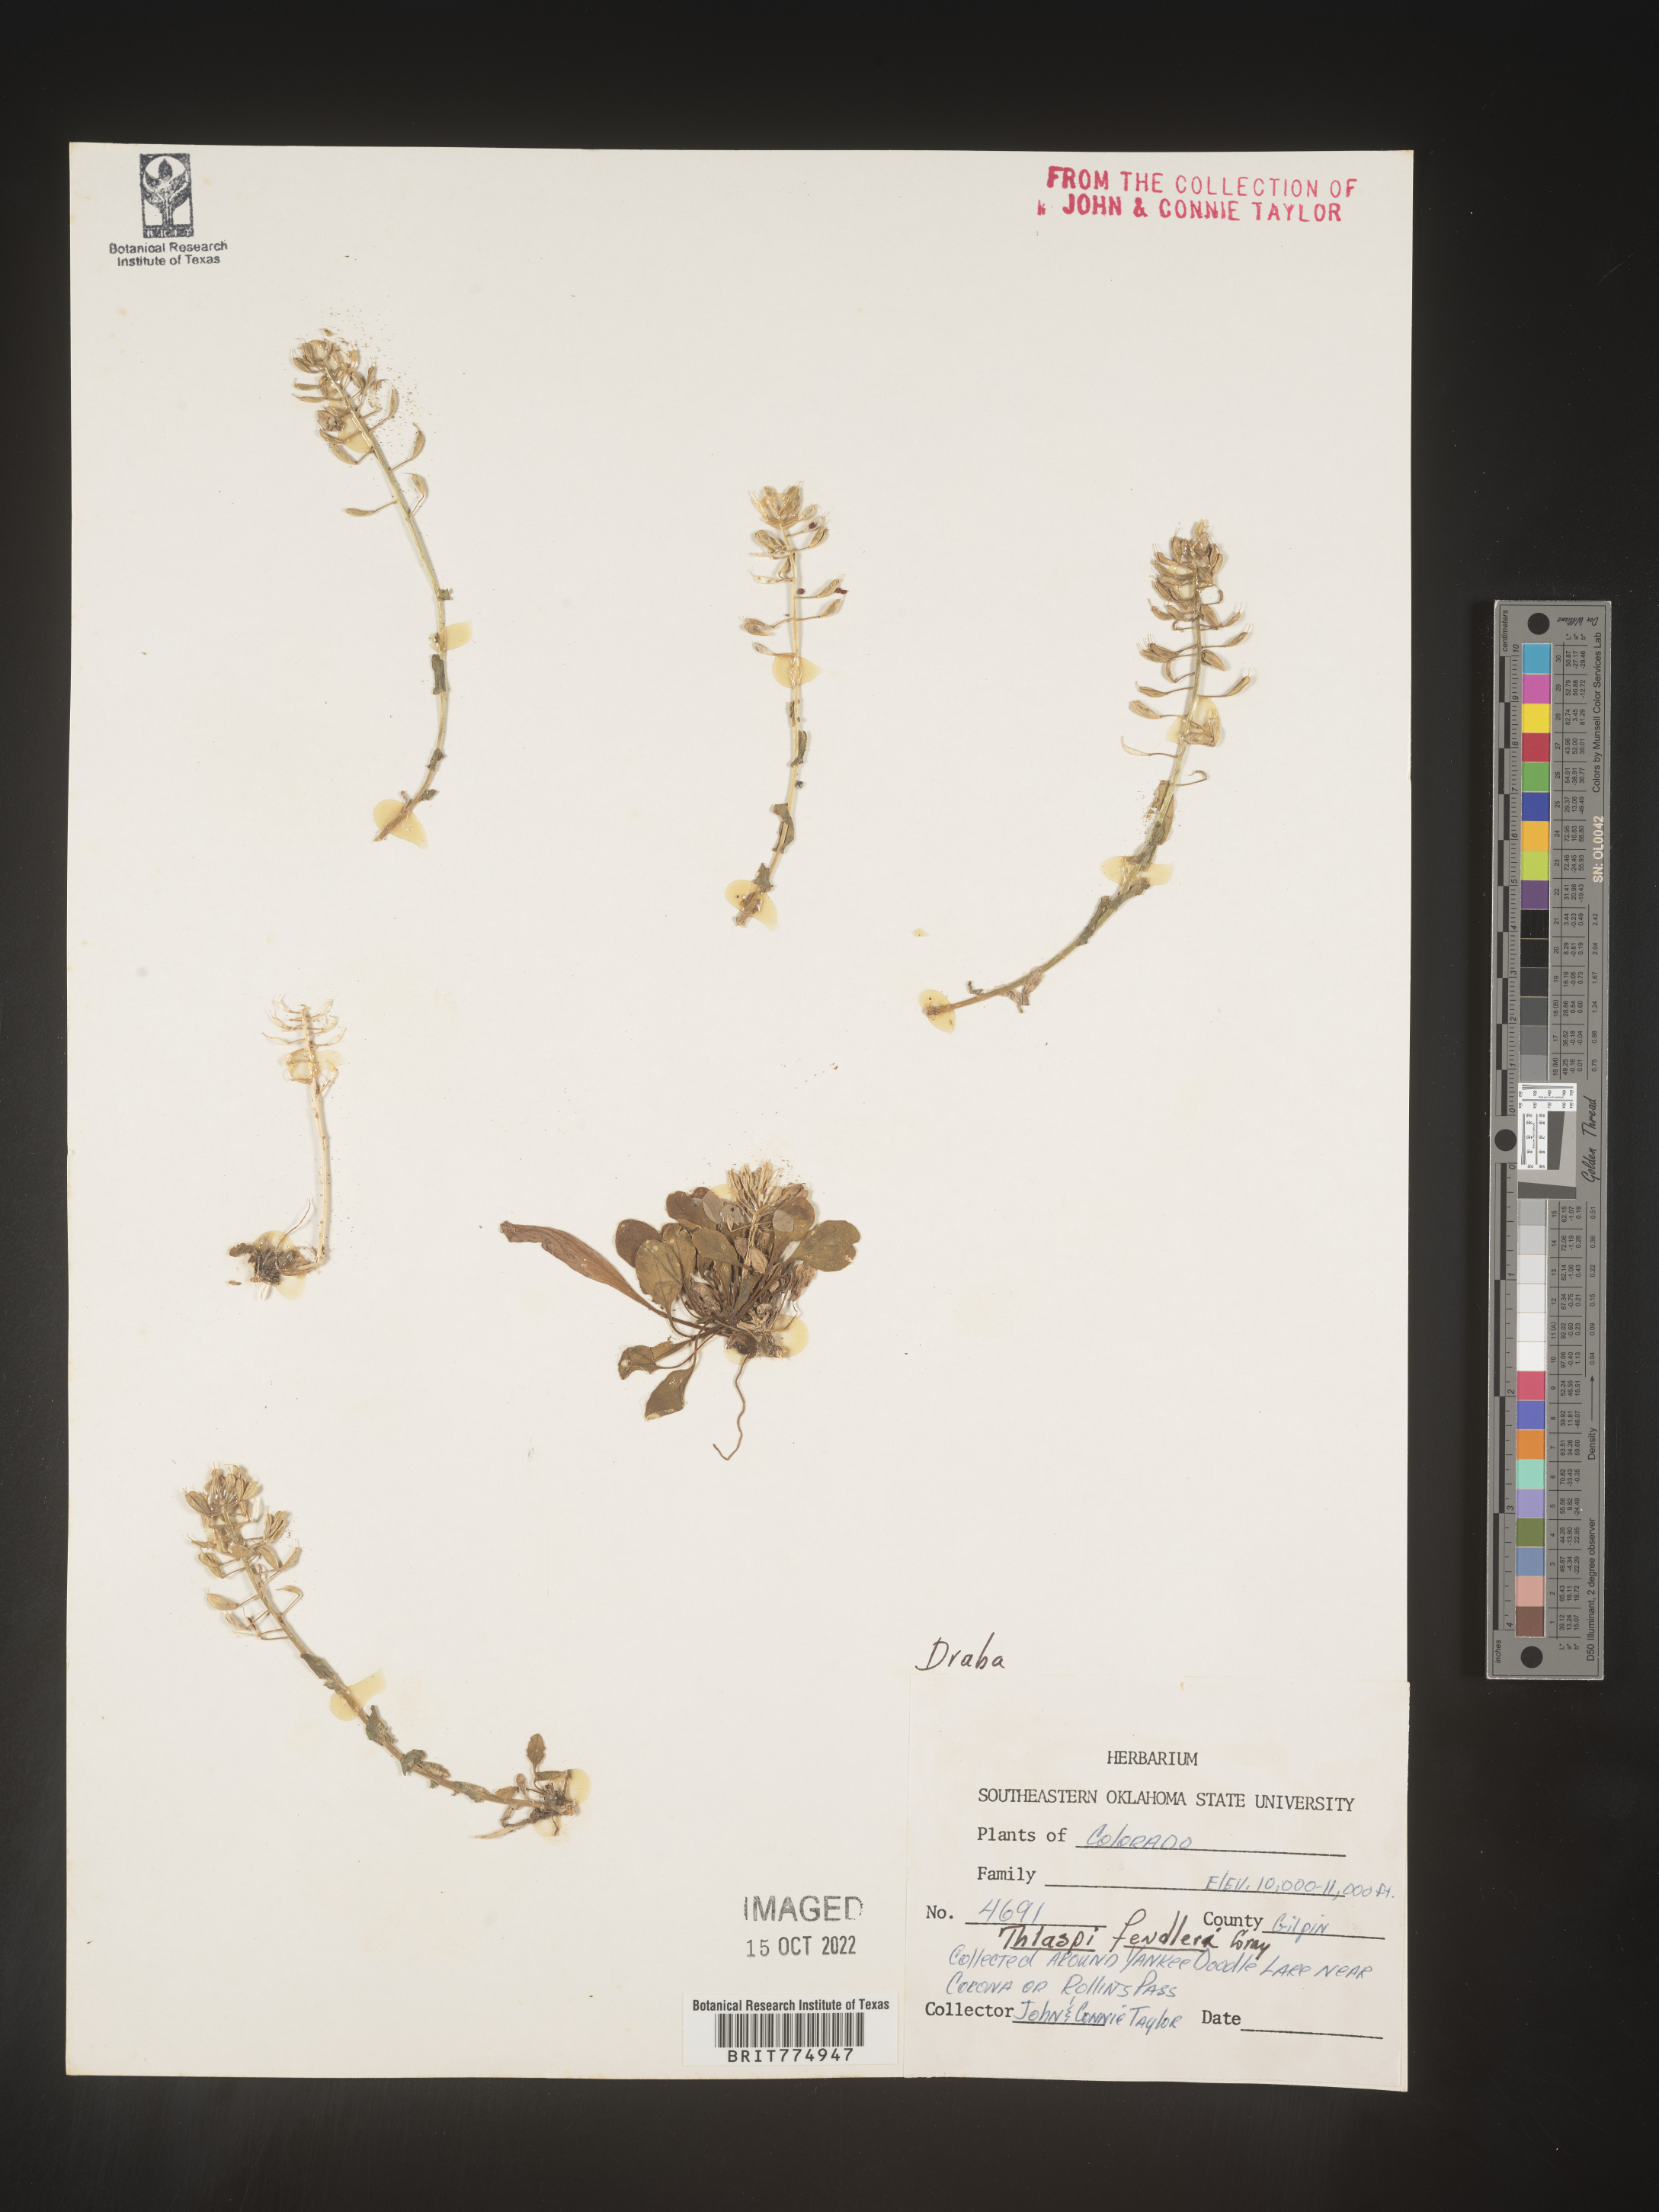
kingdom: Plantae
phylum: Tracheophyta
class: Magnoliopsida
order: Brassicales
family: Brassicaceae
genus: Draba
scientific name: Draba
